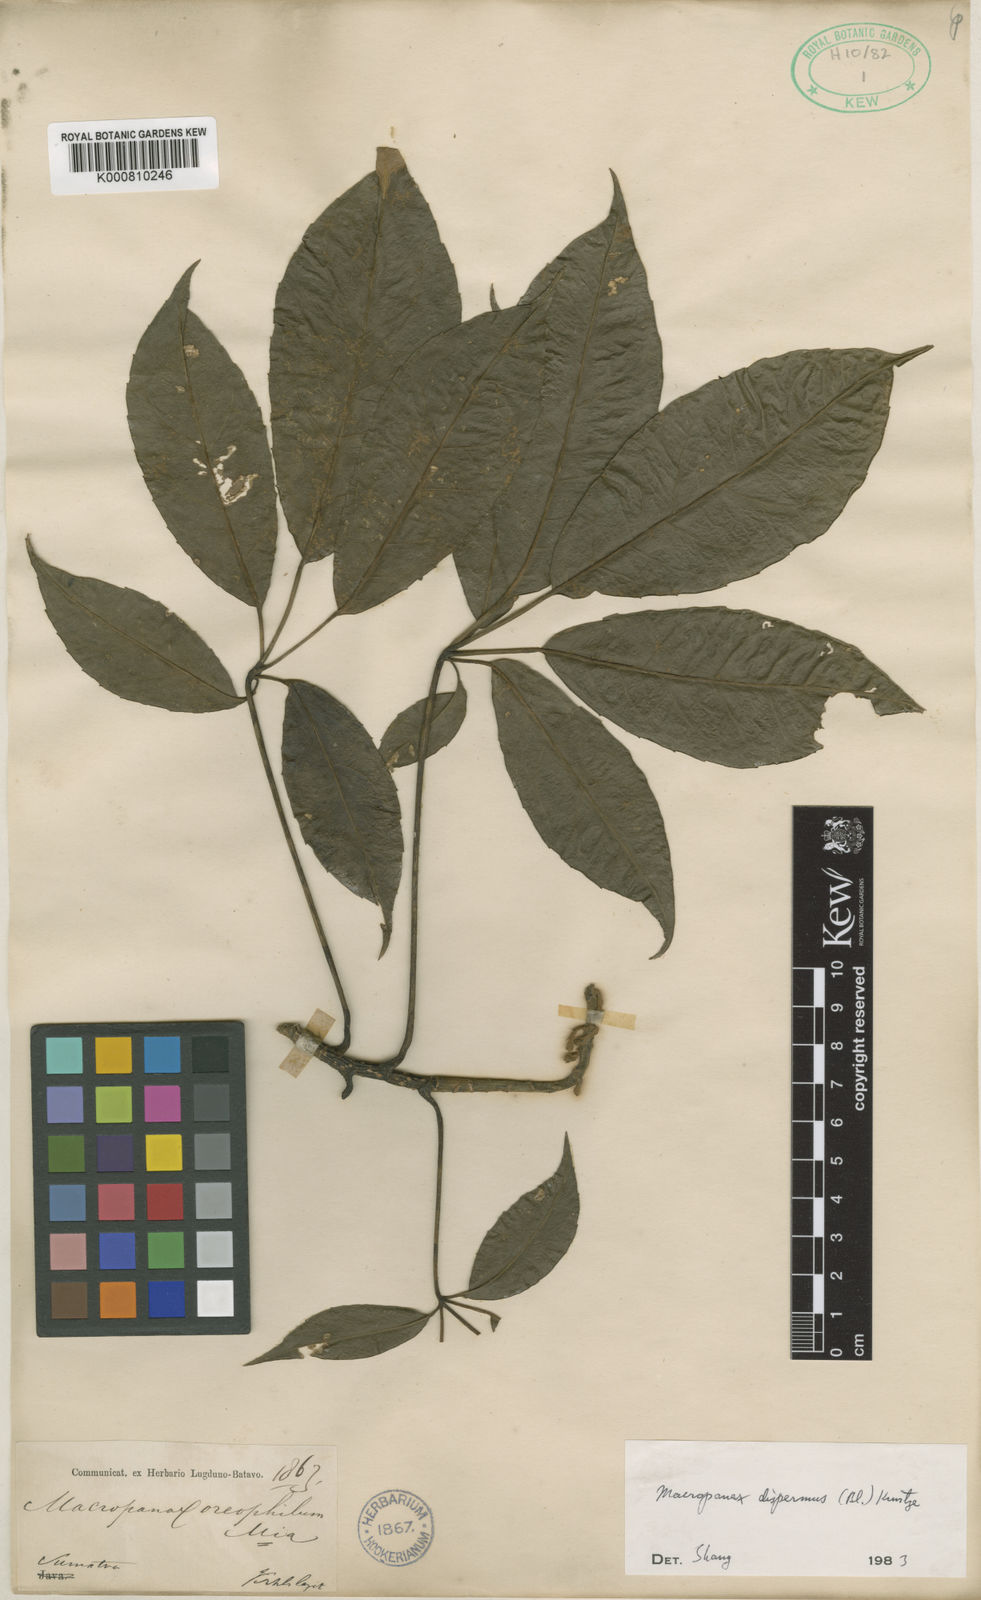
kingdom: Plantae
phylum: Tracheophyta
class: Magnoliopsida
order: Apiales
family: Araliaceae
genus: Macropanax
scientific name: Macropanax dispermus
